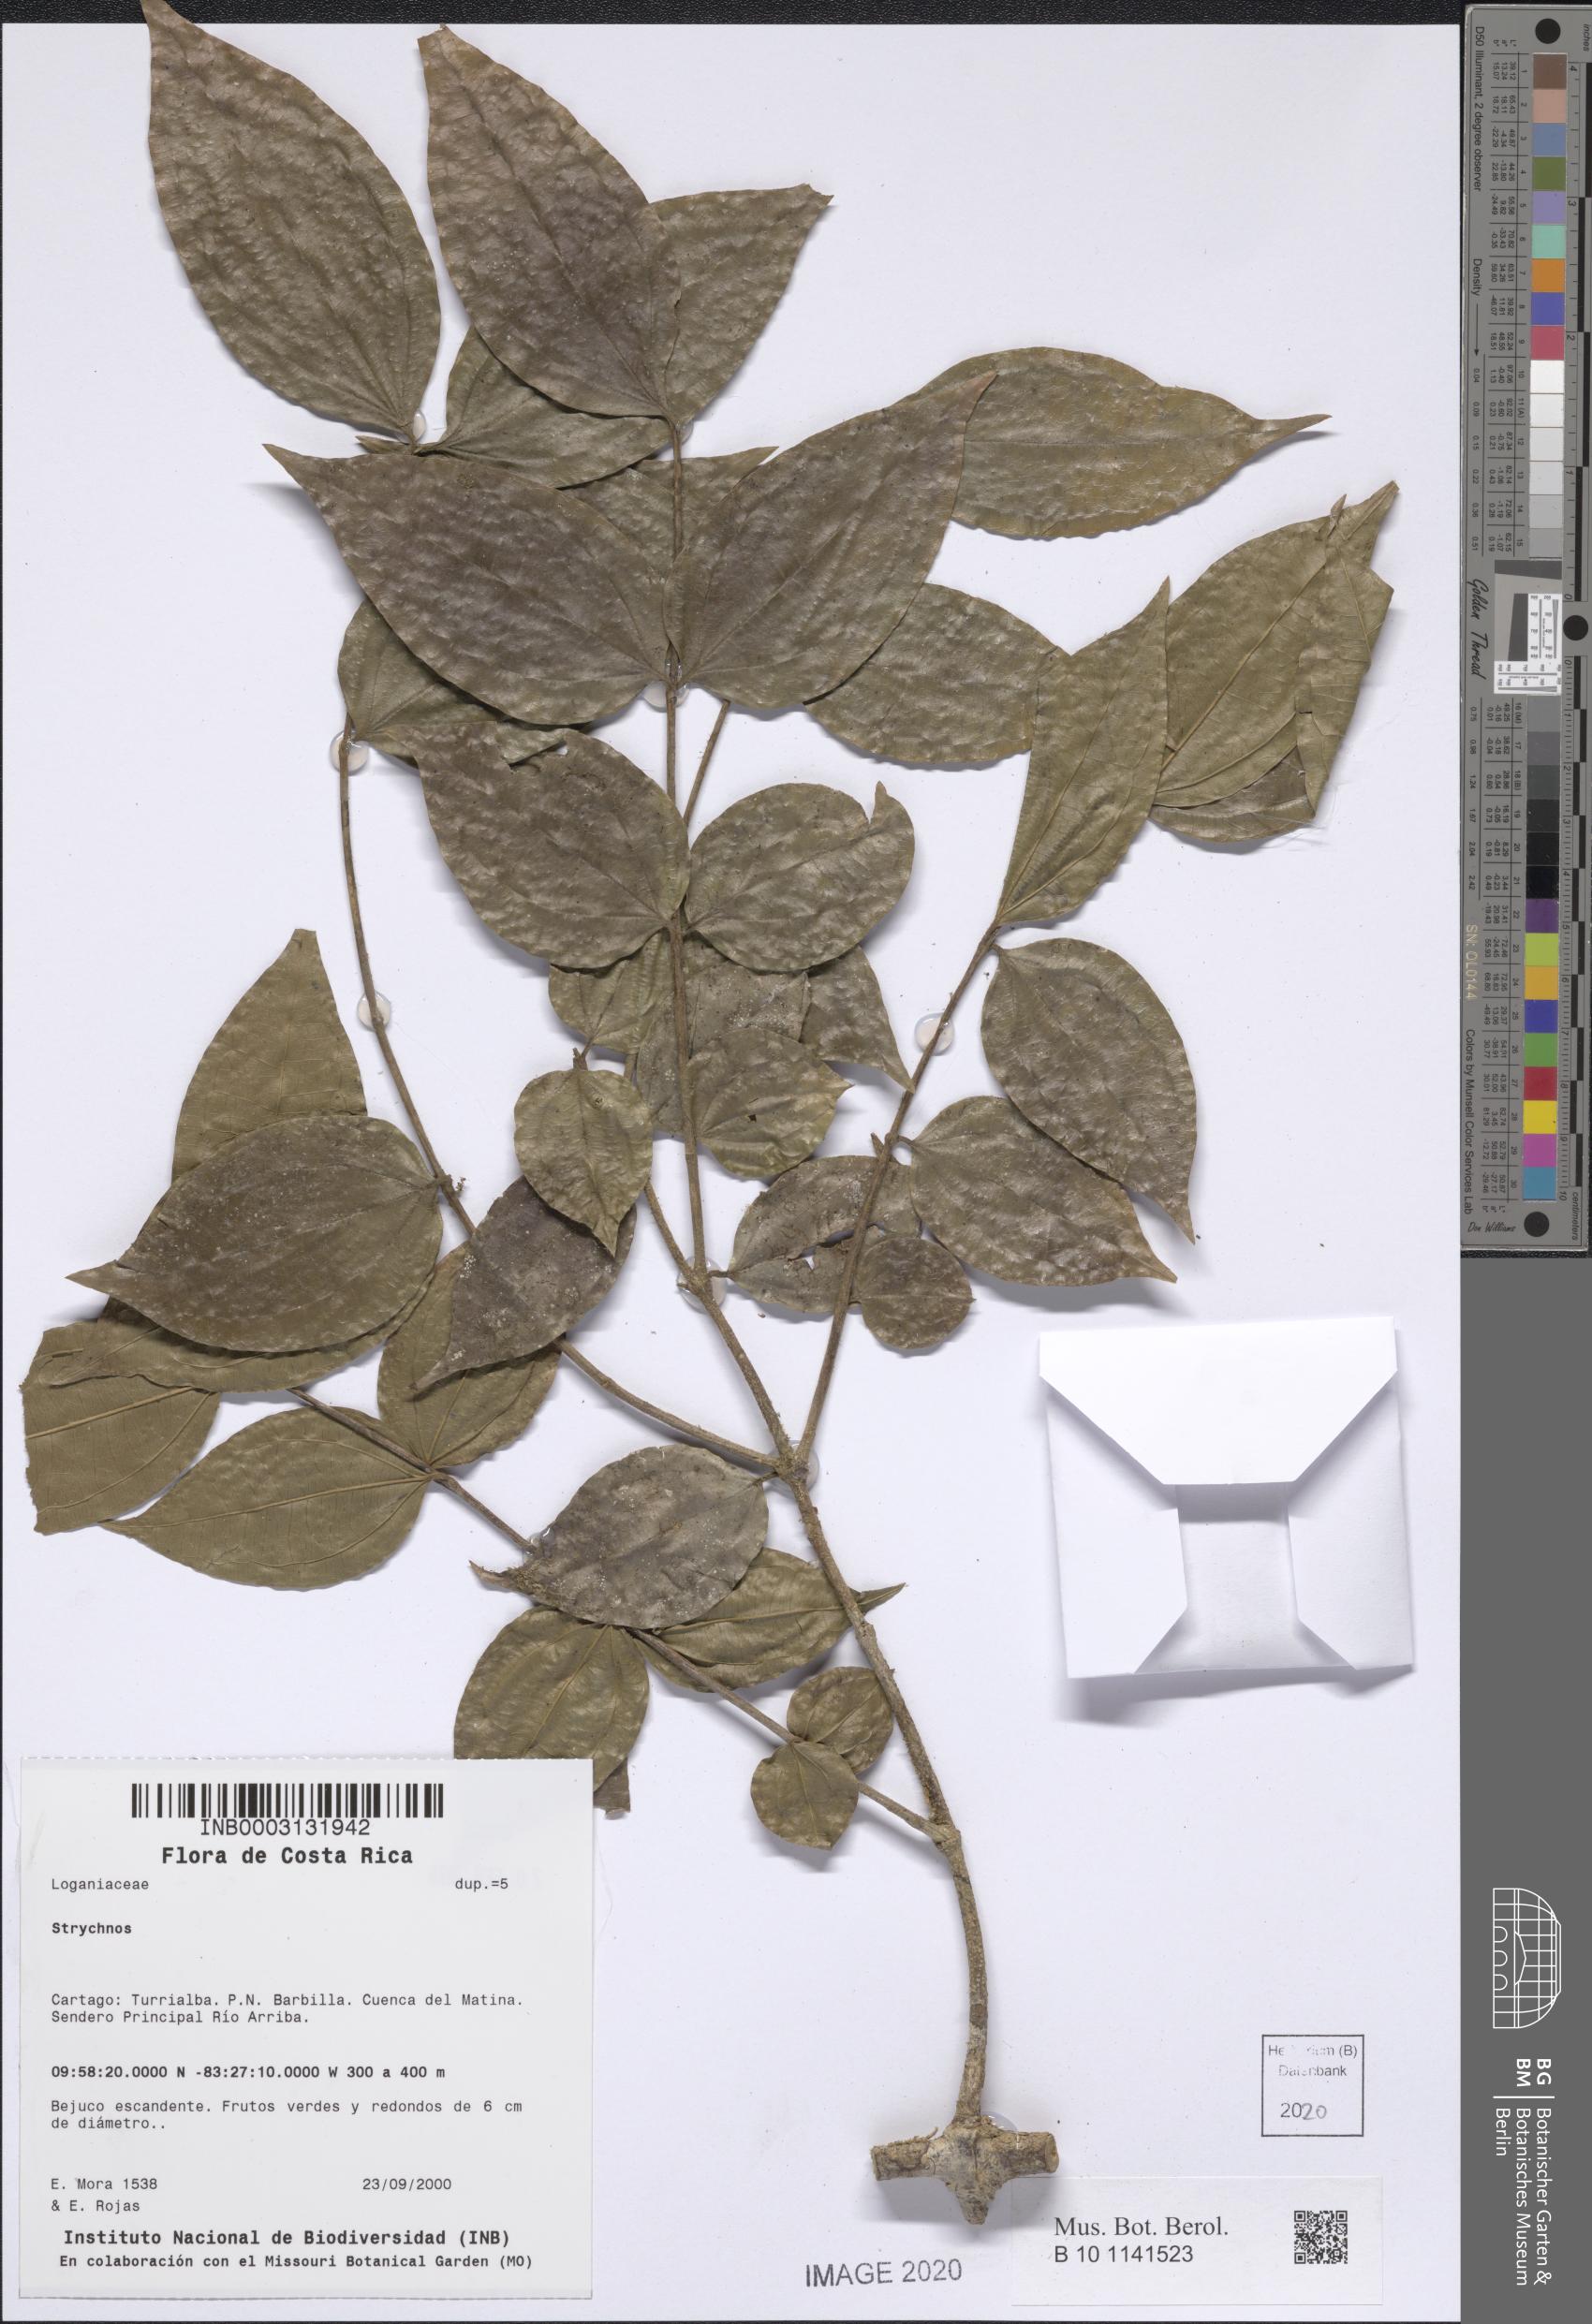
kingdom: Plantae
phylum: Tracheophyta
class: Magnoliopsida
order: Gentianales
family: Loganiaceae
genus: Strychnos
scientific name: Strychnos
